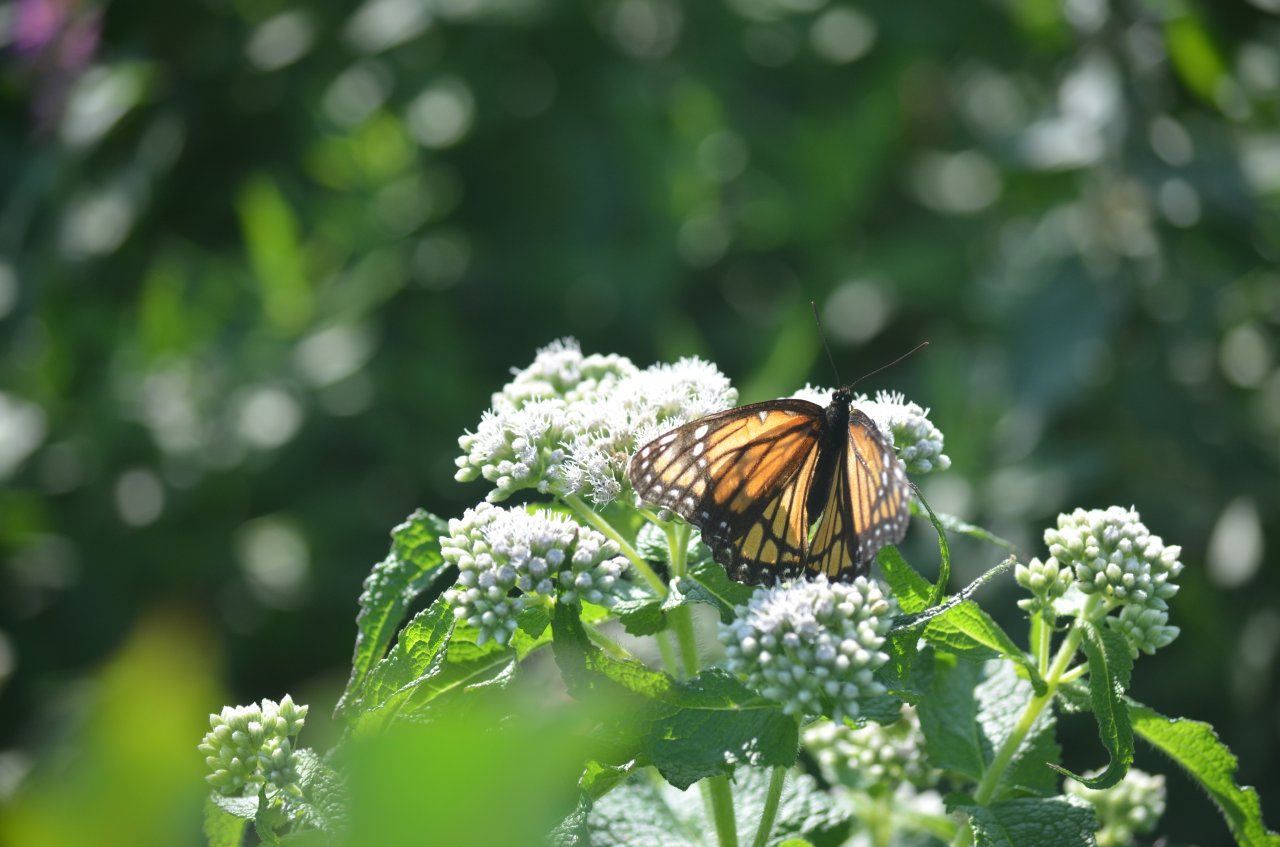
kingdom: Animalia
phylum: Arthropoda
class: Insecta
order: Lepidoptera
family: Nymphalidae
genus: Limenitis
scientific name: Limenitis archippus
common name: Viceroy
